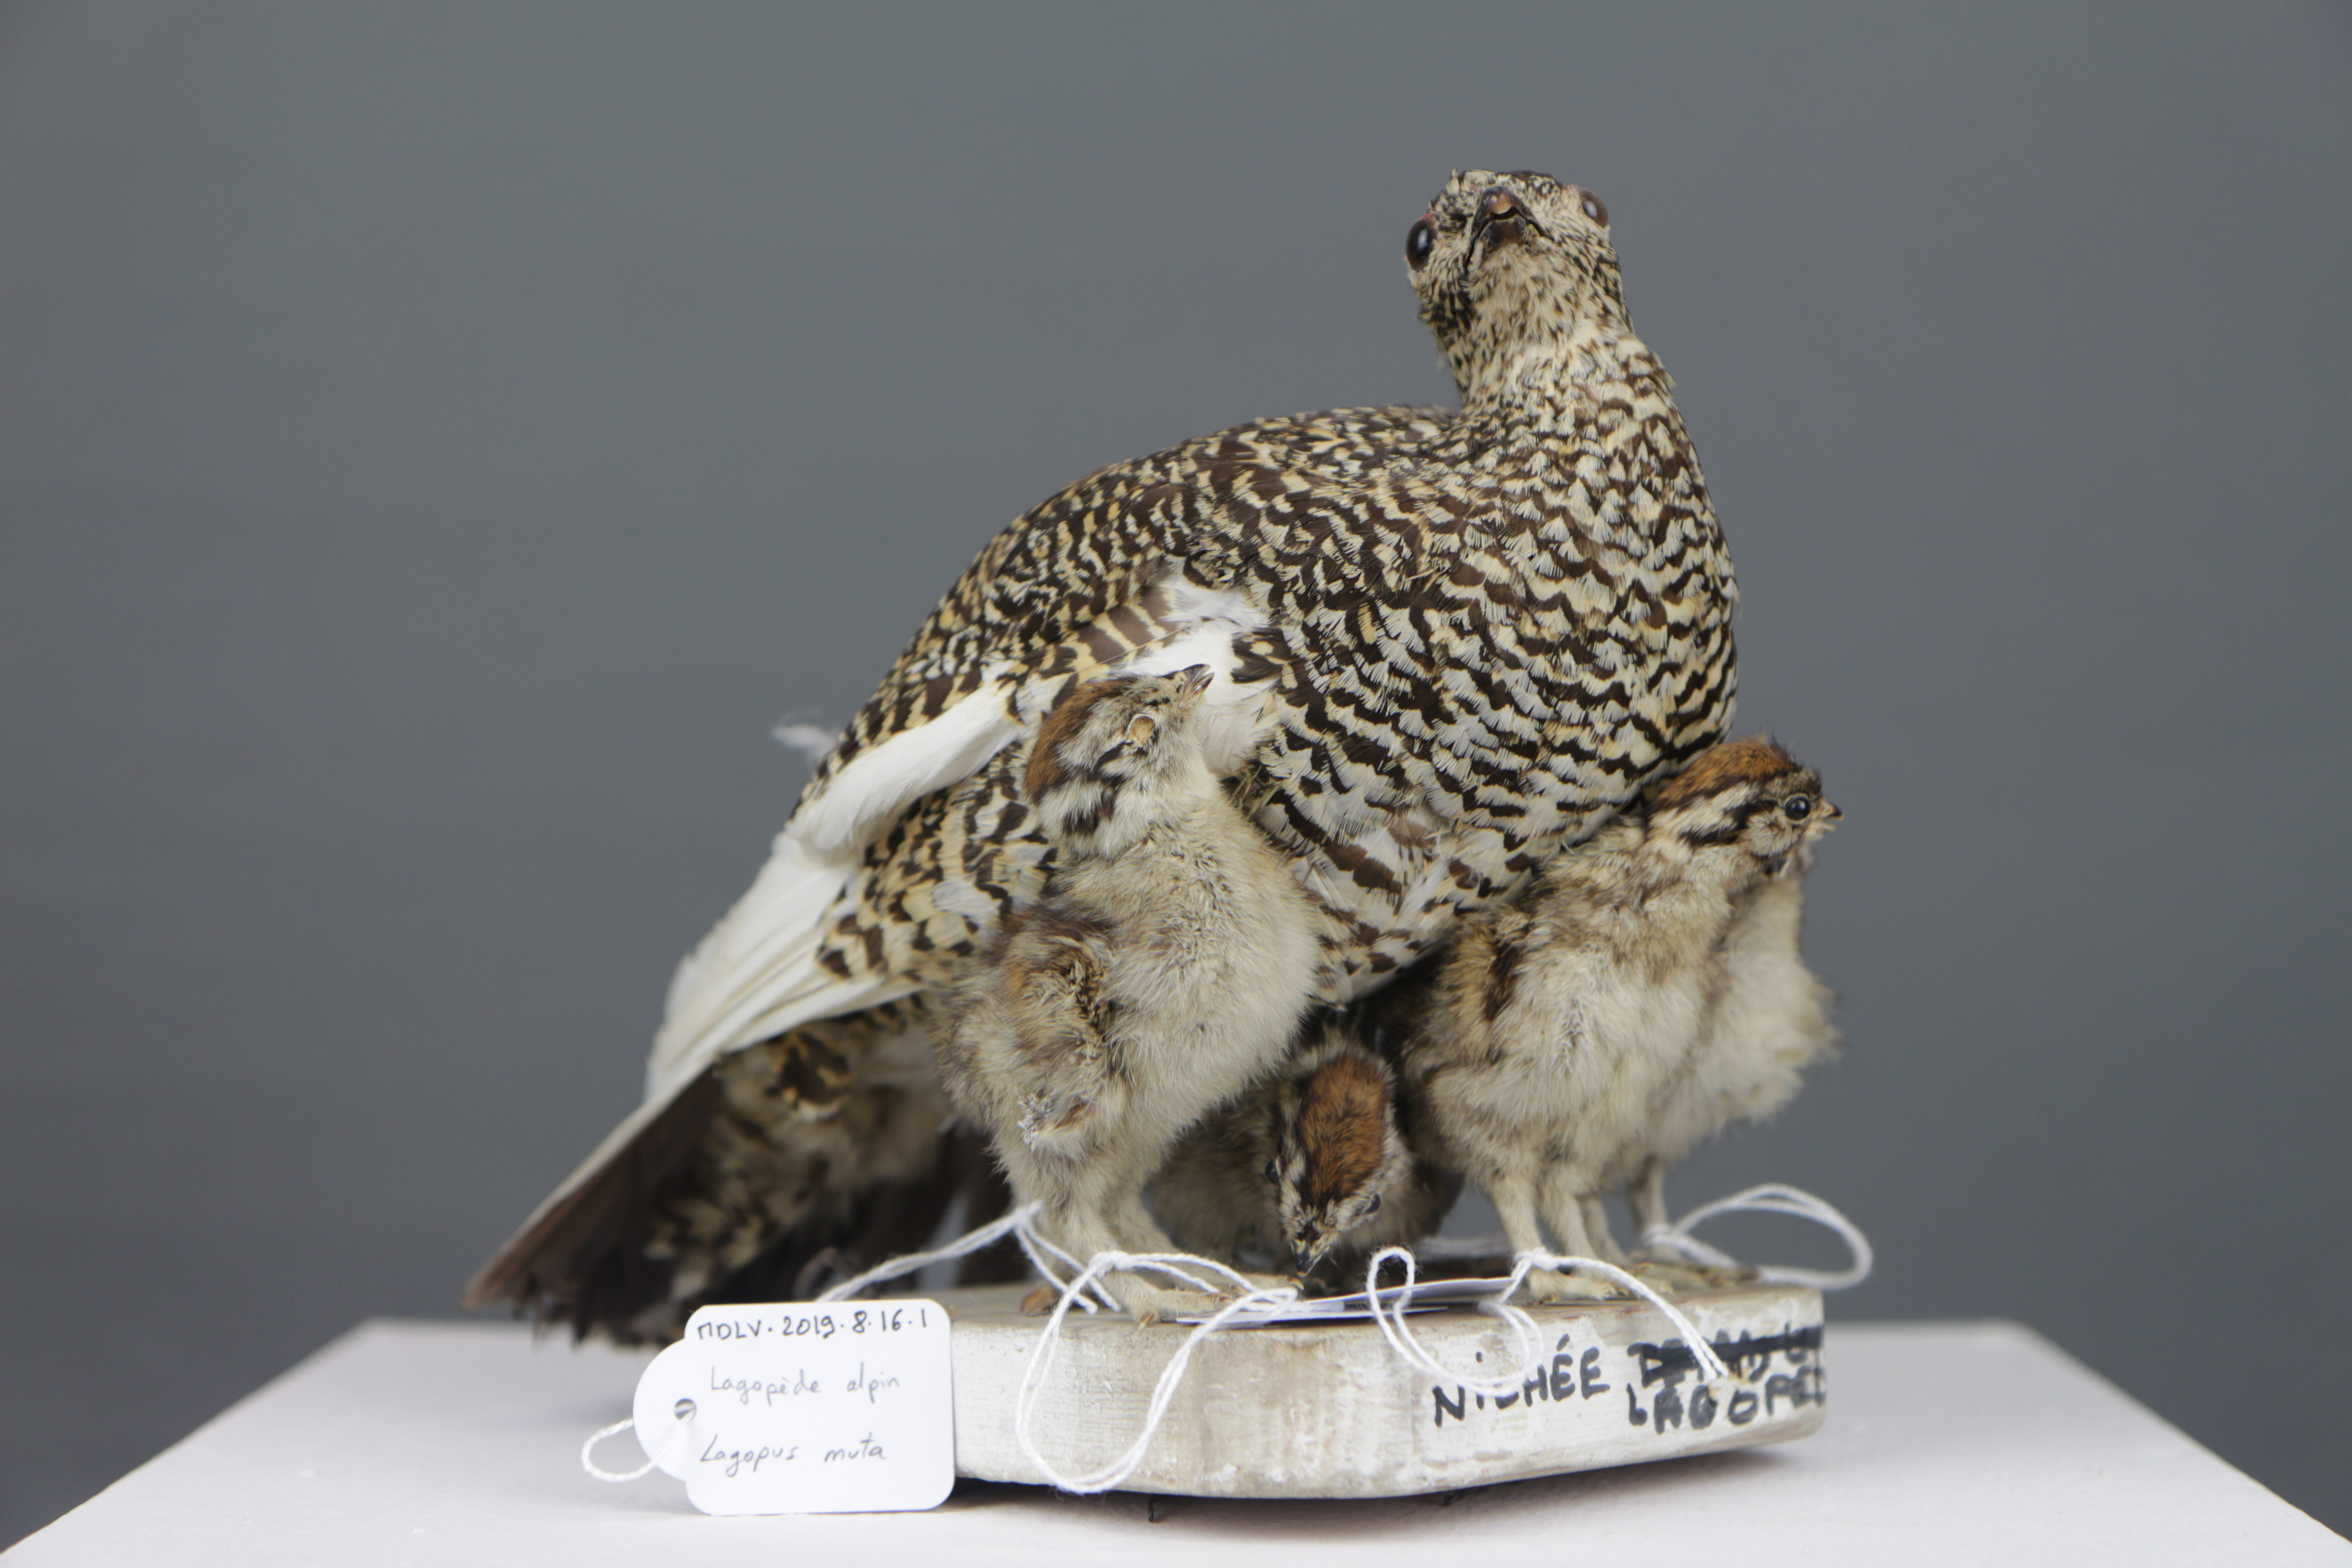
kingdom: Animalia
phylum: Chordata
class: Aves
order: Galliformes
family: Phasianidae
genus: Lagopus
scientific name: Lagopus muta
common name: Rock ptarmigan
